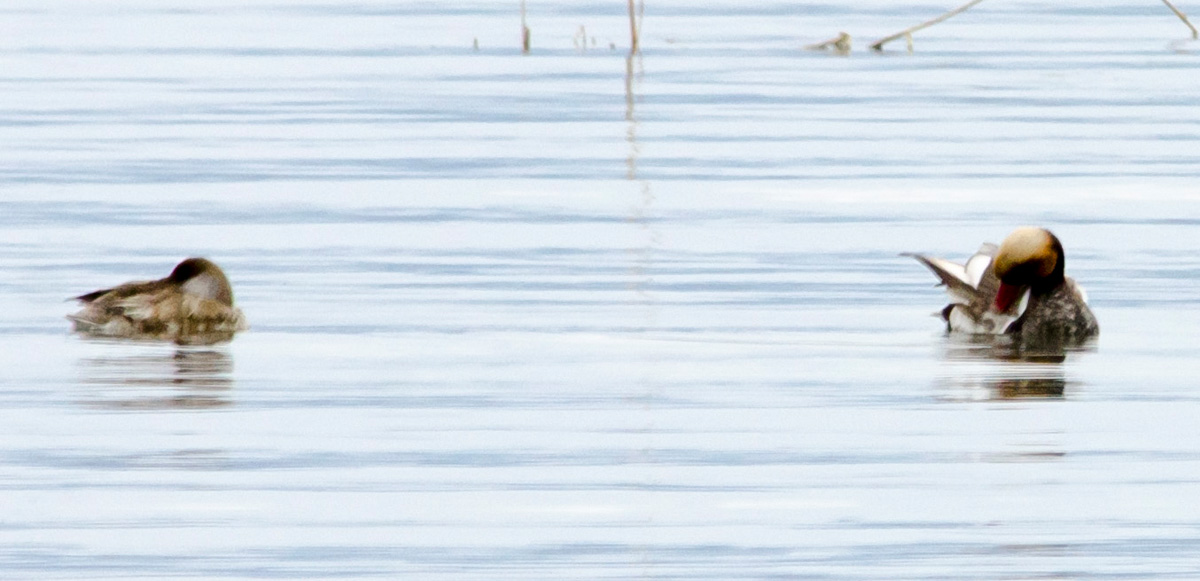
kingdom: Animalia
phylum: Chordata
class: Aves
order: Anseriformes
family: Anatidae
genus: Netta
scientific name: Netta rufina
